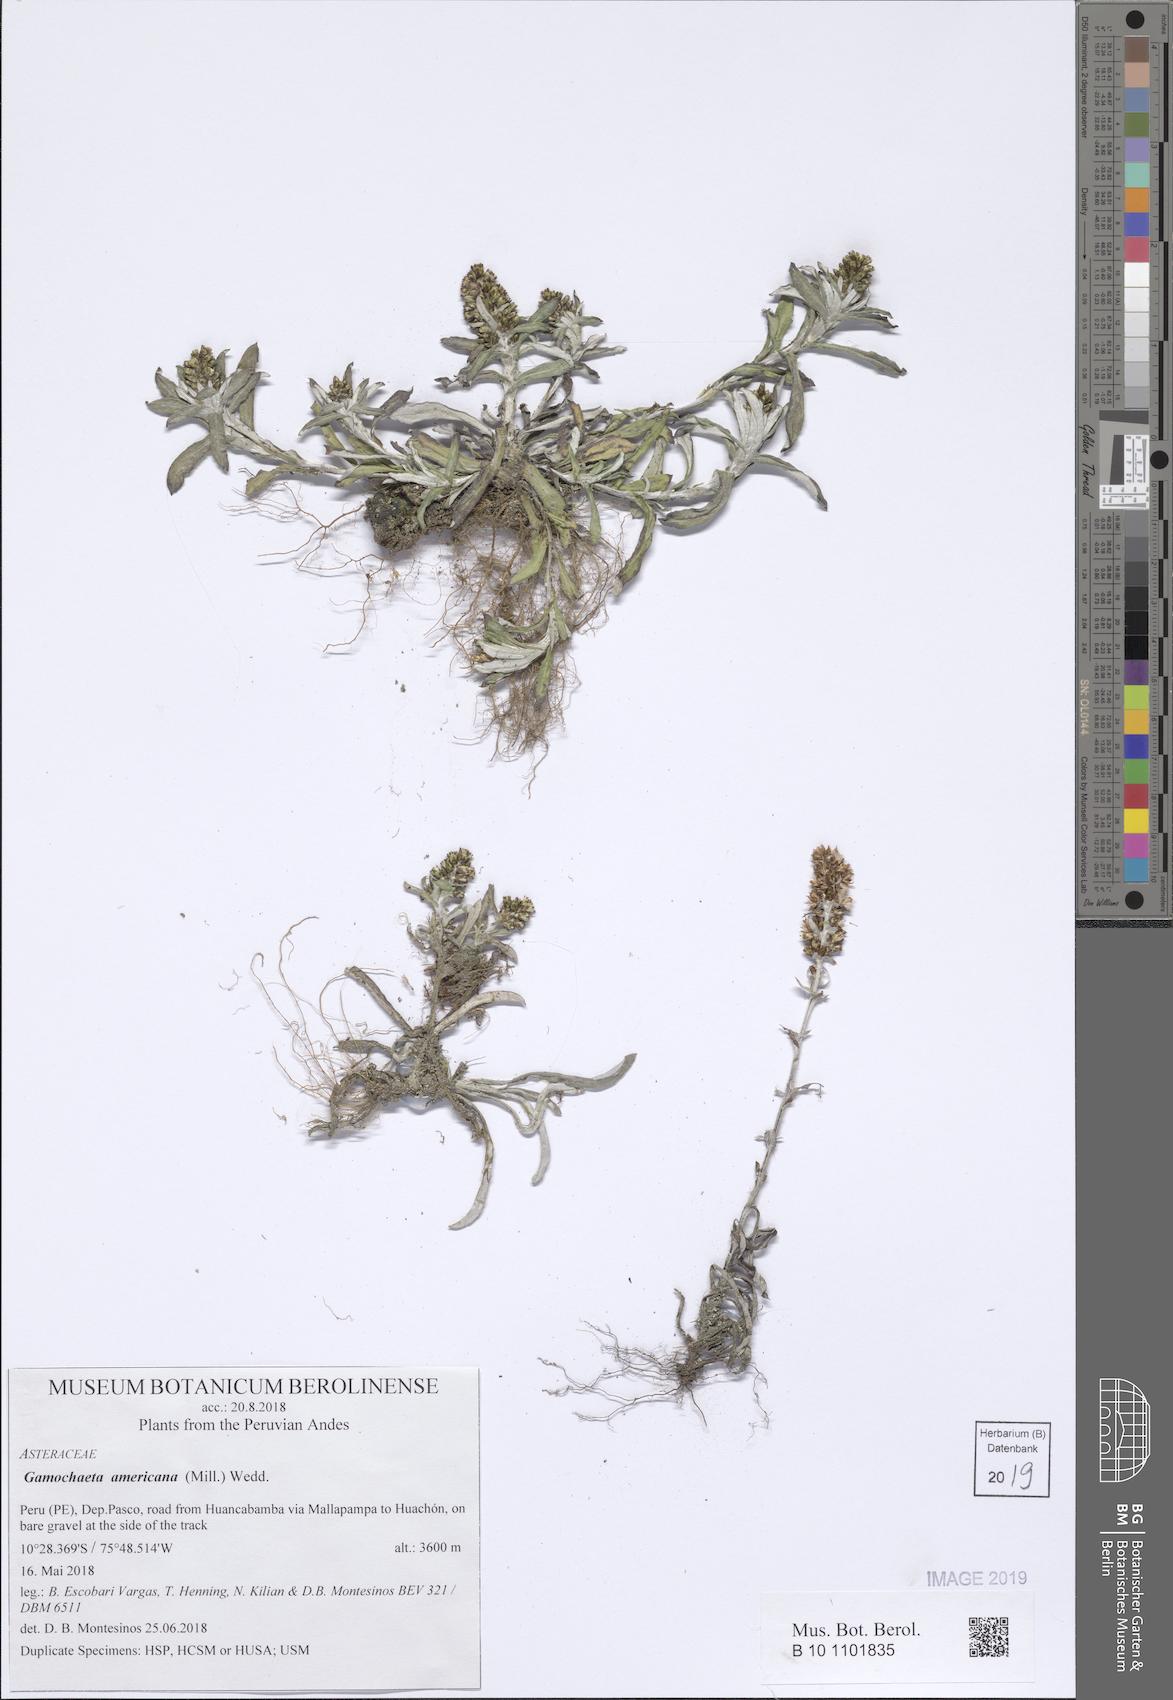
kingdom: Plantae
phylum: Tracheophyta
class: Magnoliopsida
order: Asterales
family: Asteraceae
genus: Gamochaeta
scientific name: Gamochaeta americana
